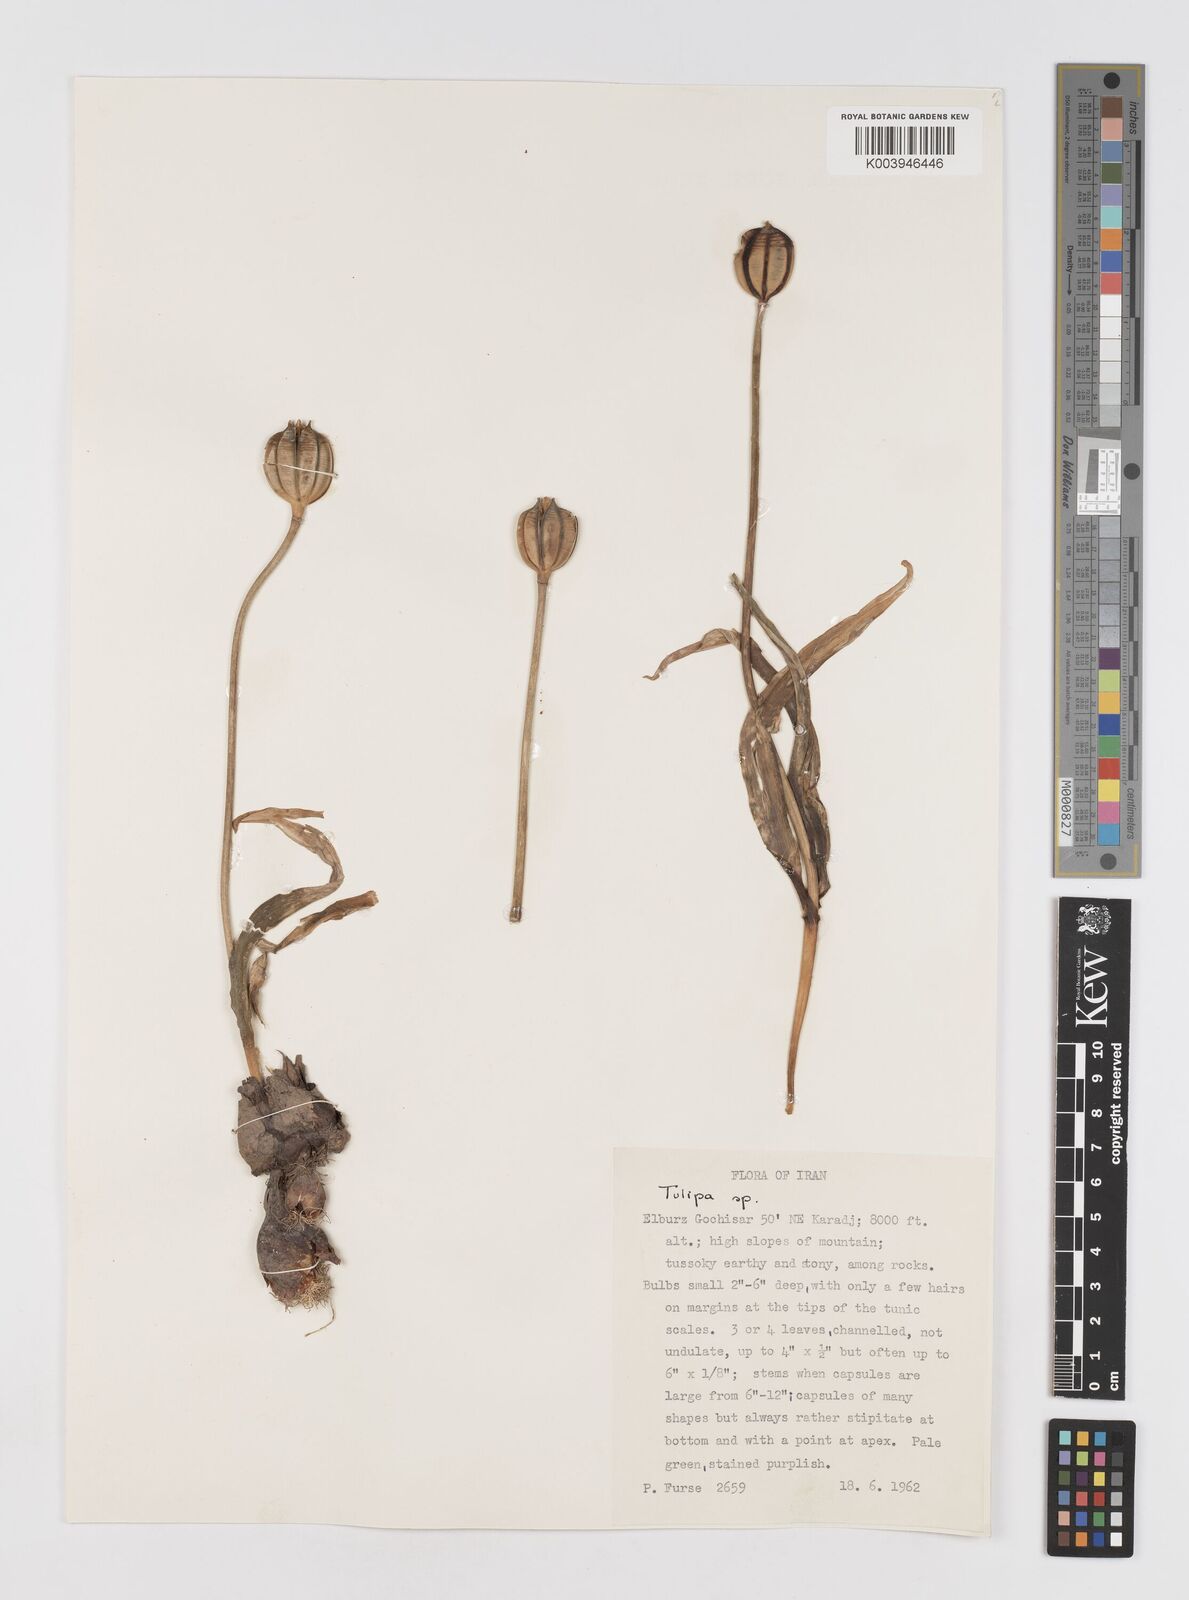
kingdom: Plantae
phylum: Tracheophyta
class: Liliopsida
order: Liliales
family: Liliaceae
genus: Tulipa
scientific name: Tulipa
